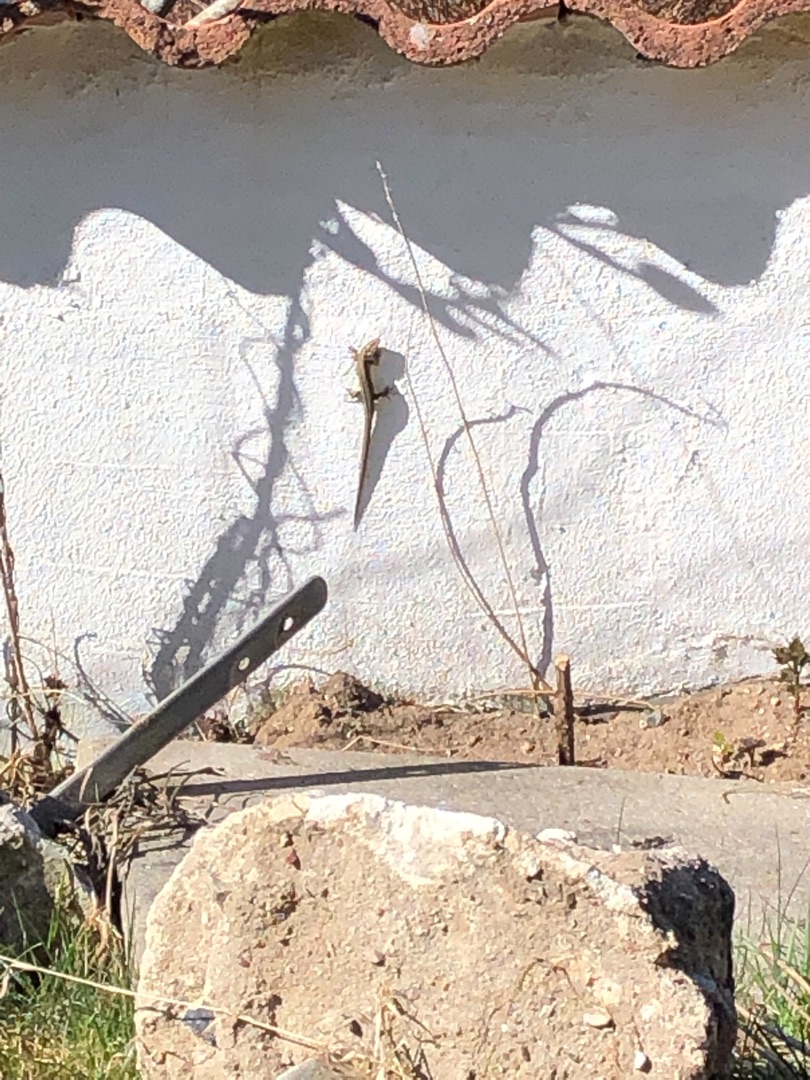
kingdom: Animalia
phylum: Chordata
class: Squamata
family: Lacertidae
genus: Zootoca
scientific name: Zootoca vivipara
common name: Skovfirben
